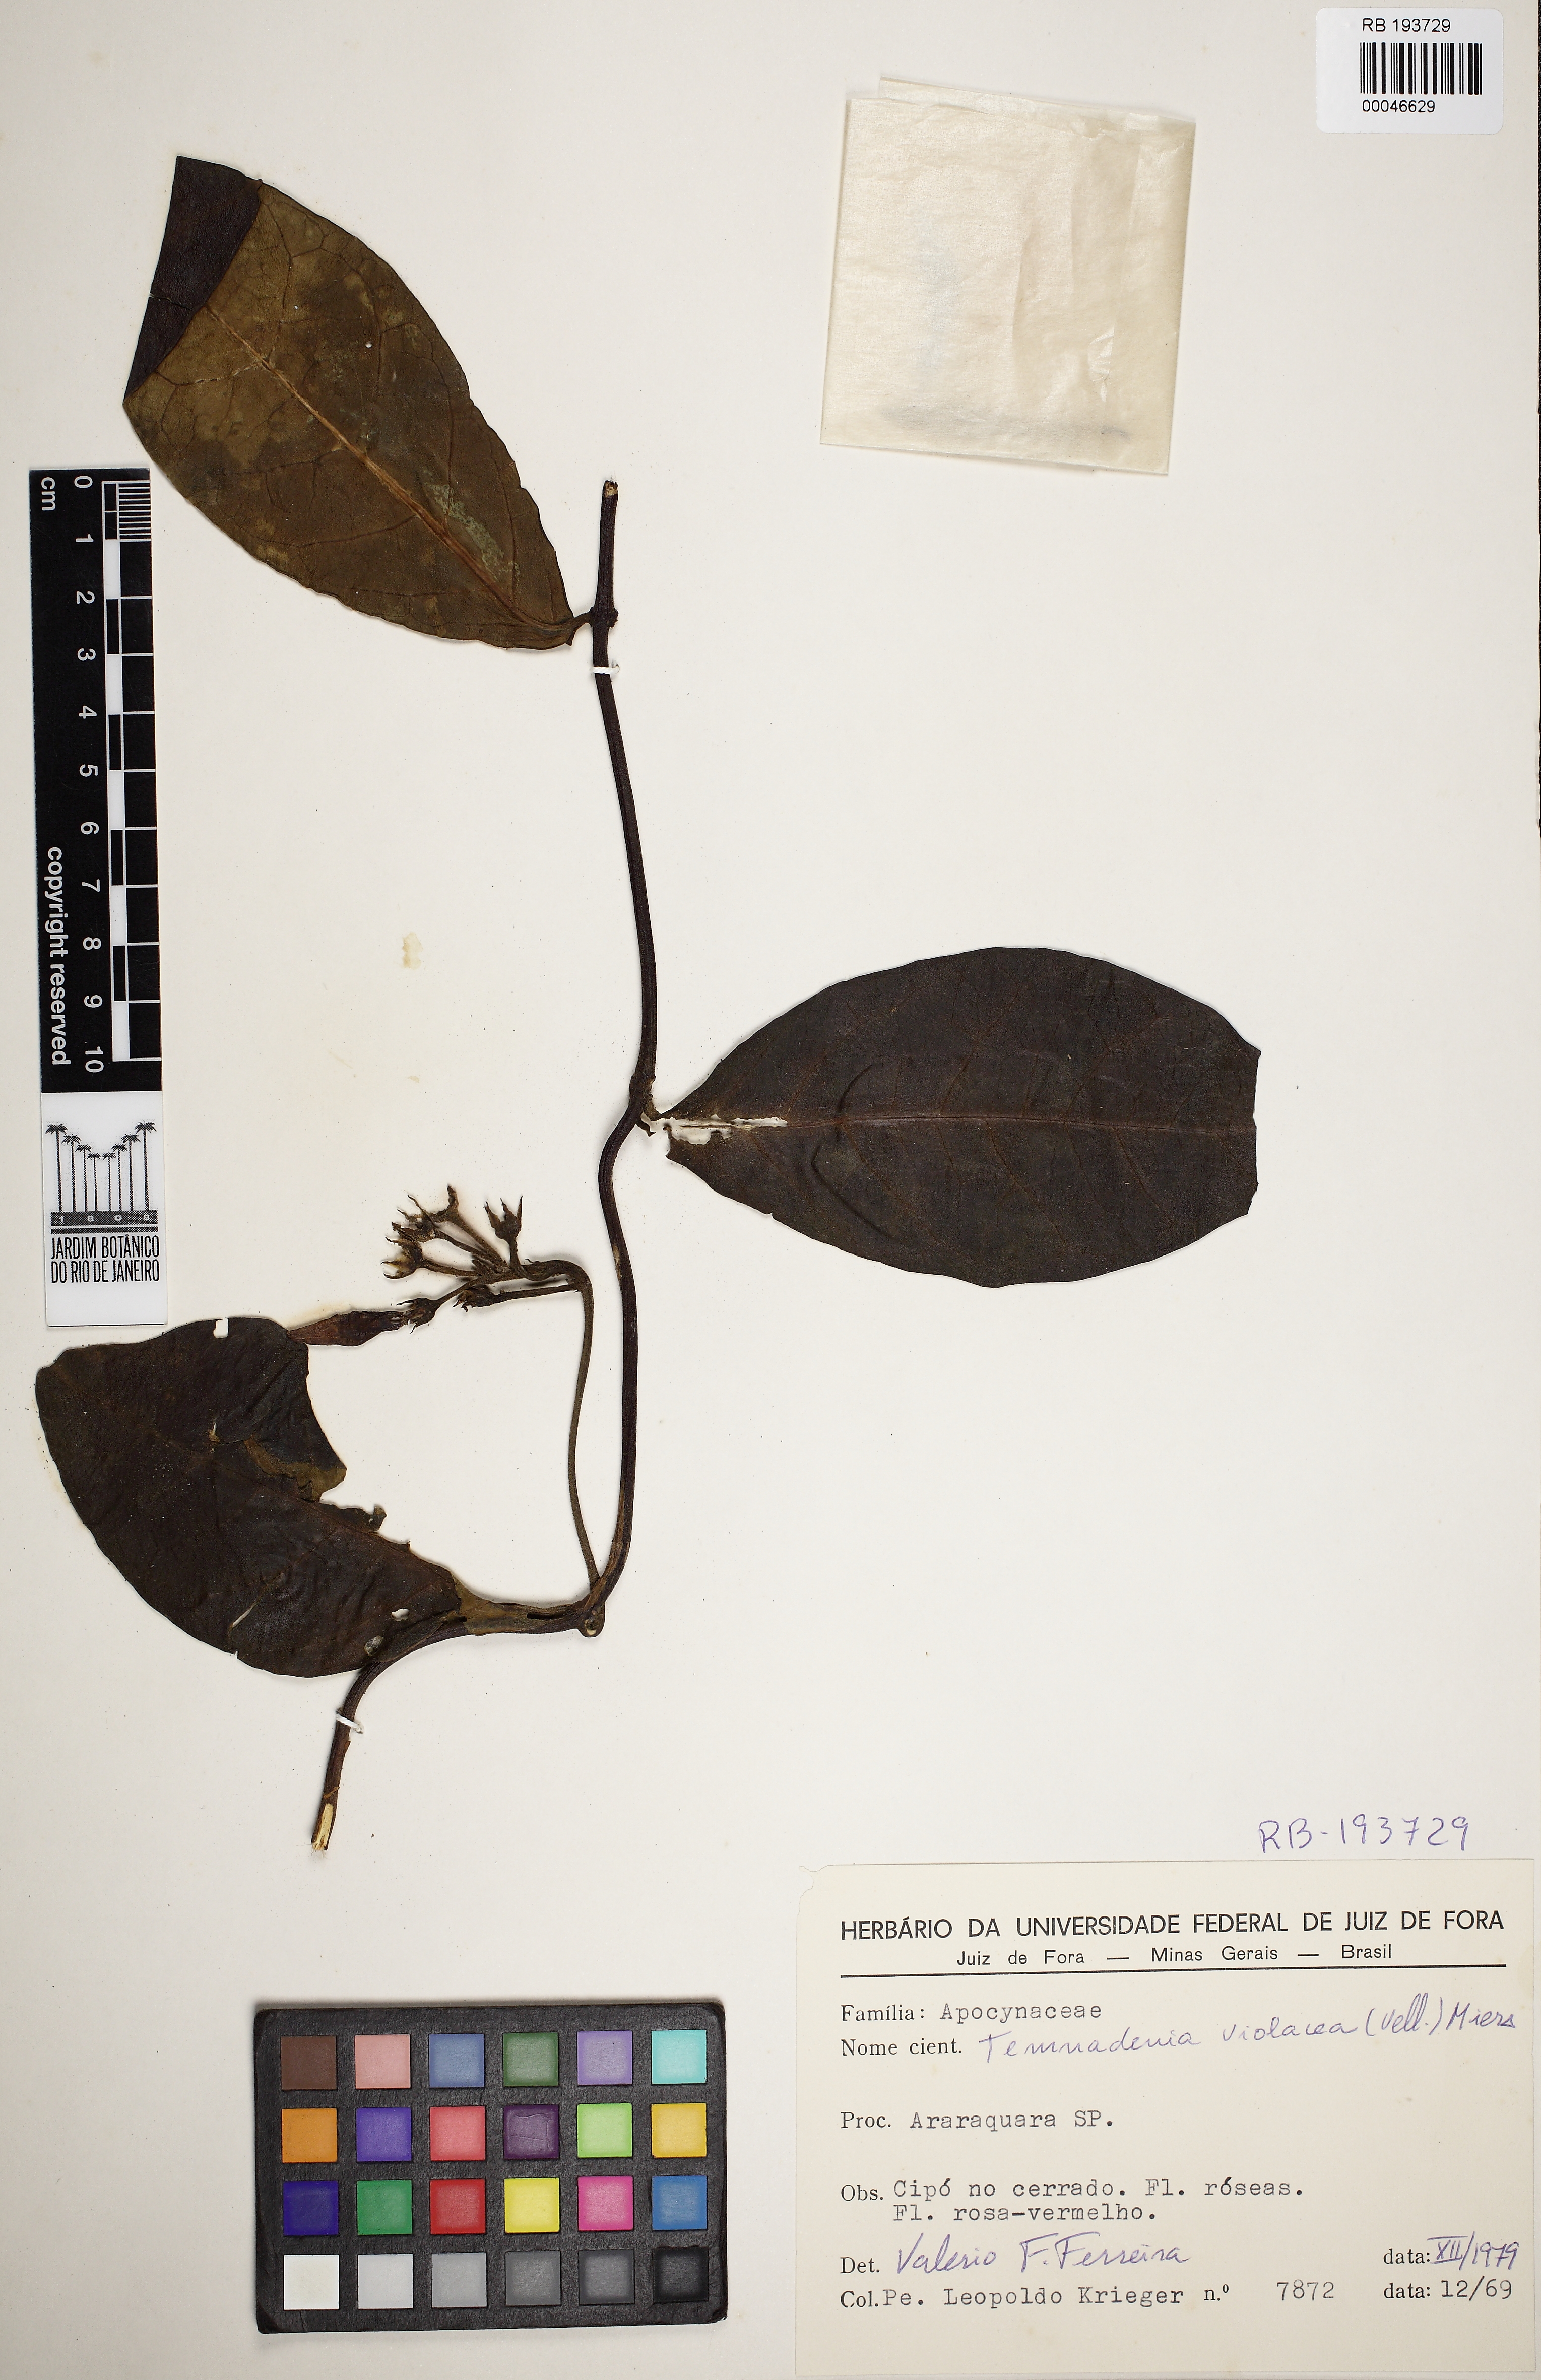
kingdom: Plantae
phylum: Tracheophyta
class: Magnoliopsida
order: Gentianales
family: Apocynaceae
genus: Temnadenia
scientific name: Temnadenia violacea
